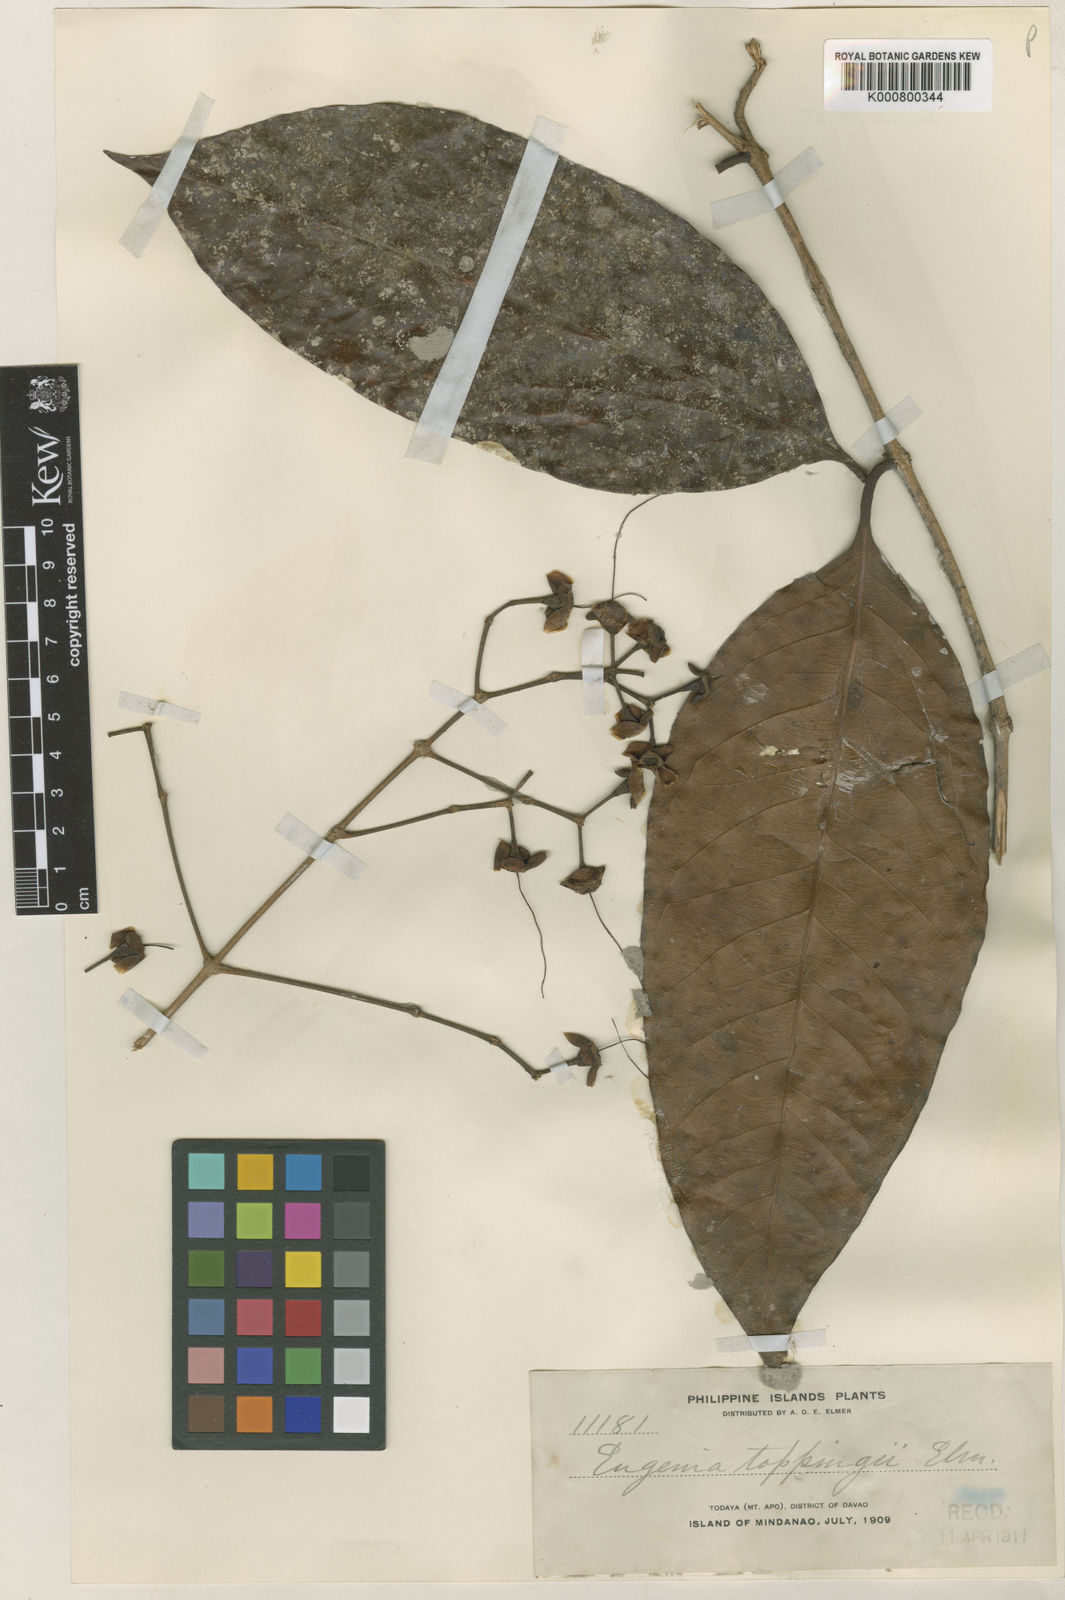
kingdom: Plantae
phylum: Tracheophyta
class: Magnoliopsida
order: Myrtales
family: Myrtaceae
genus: Syzygium
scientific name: Syzygium toppingii
